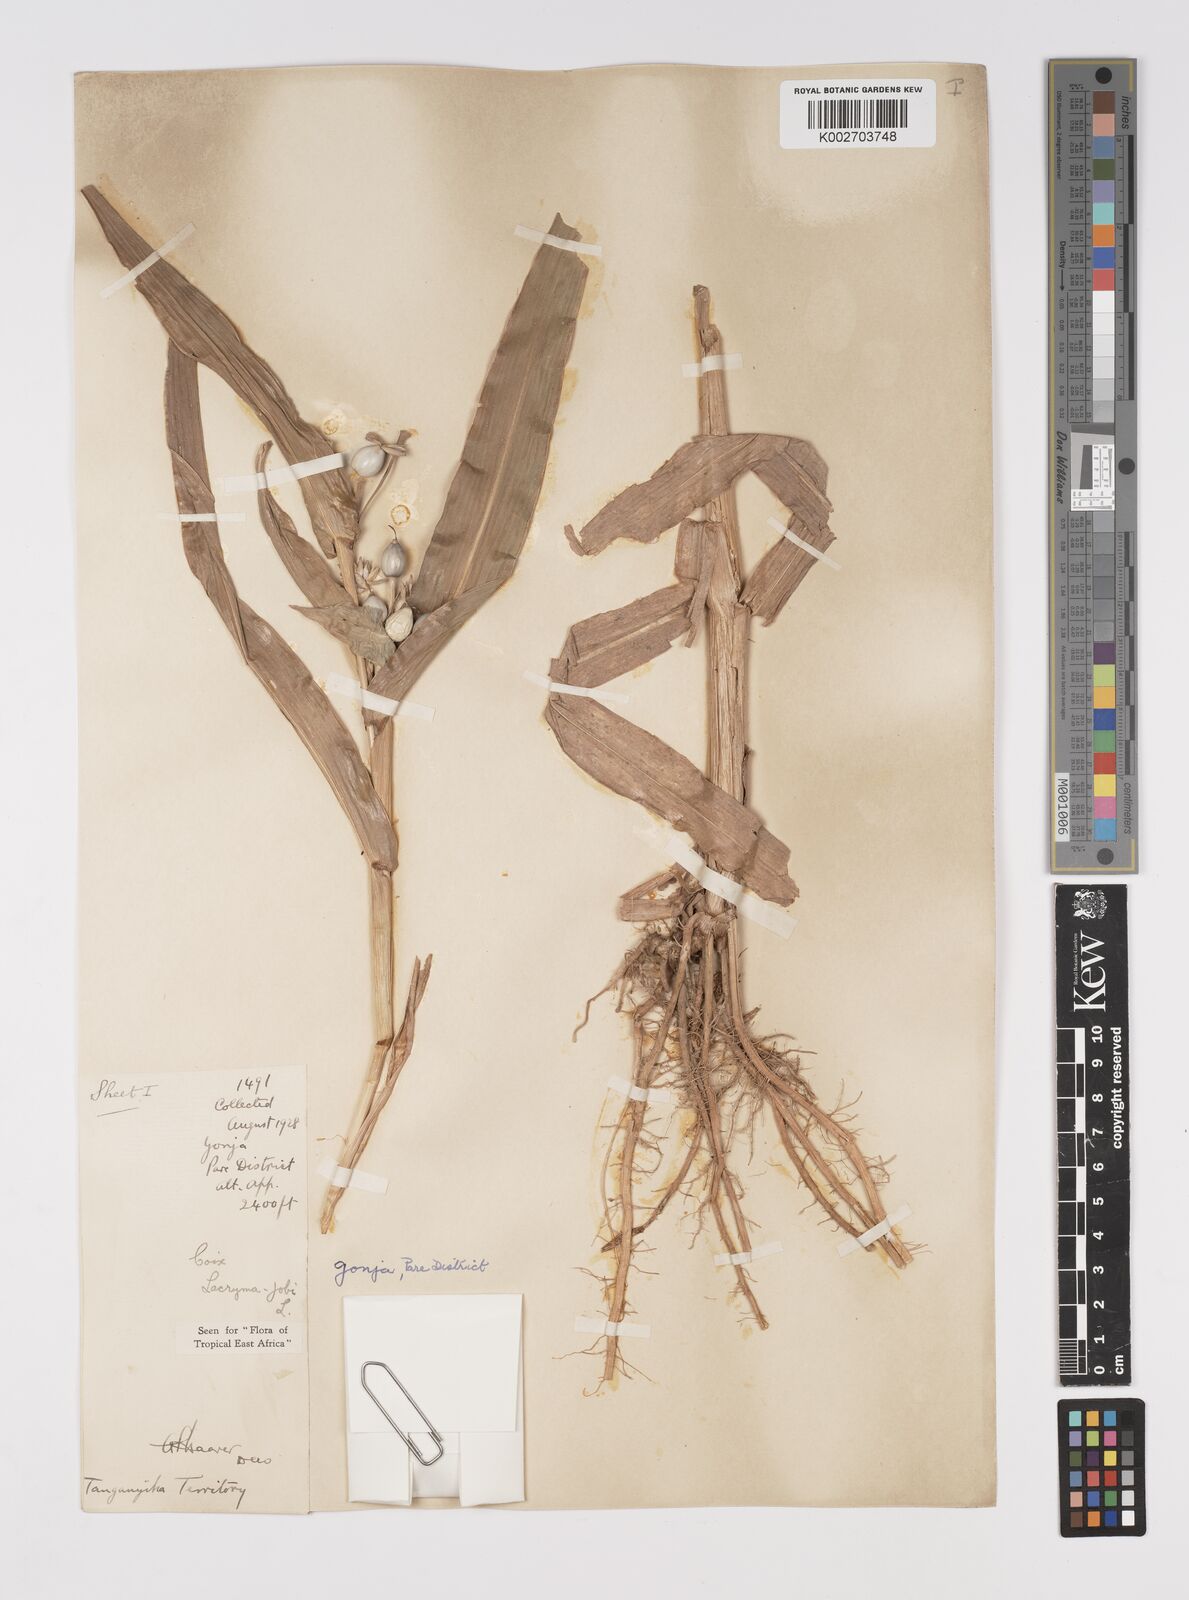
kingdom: Plantae
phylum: Tracheophyta
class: Liliopsida
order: Poales
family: Poaceae
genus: Coix
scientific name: Coix lacryma-jobi
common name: Job's tears
